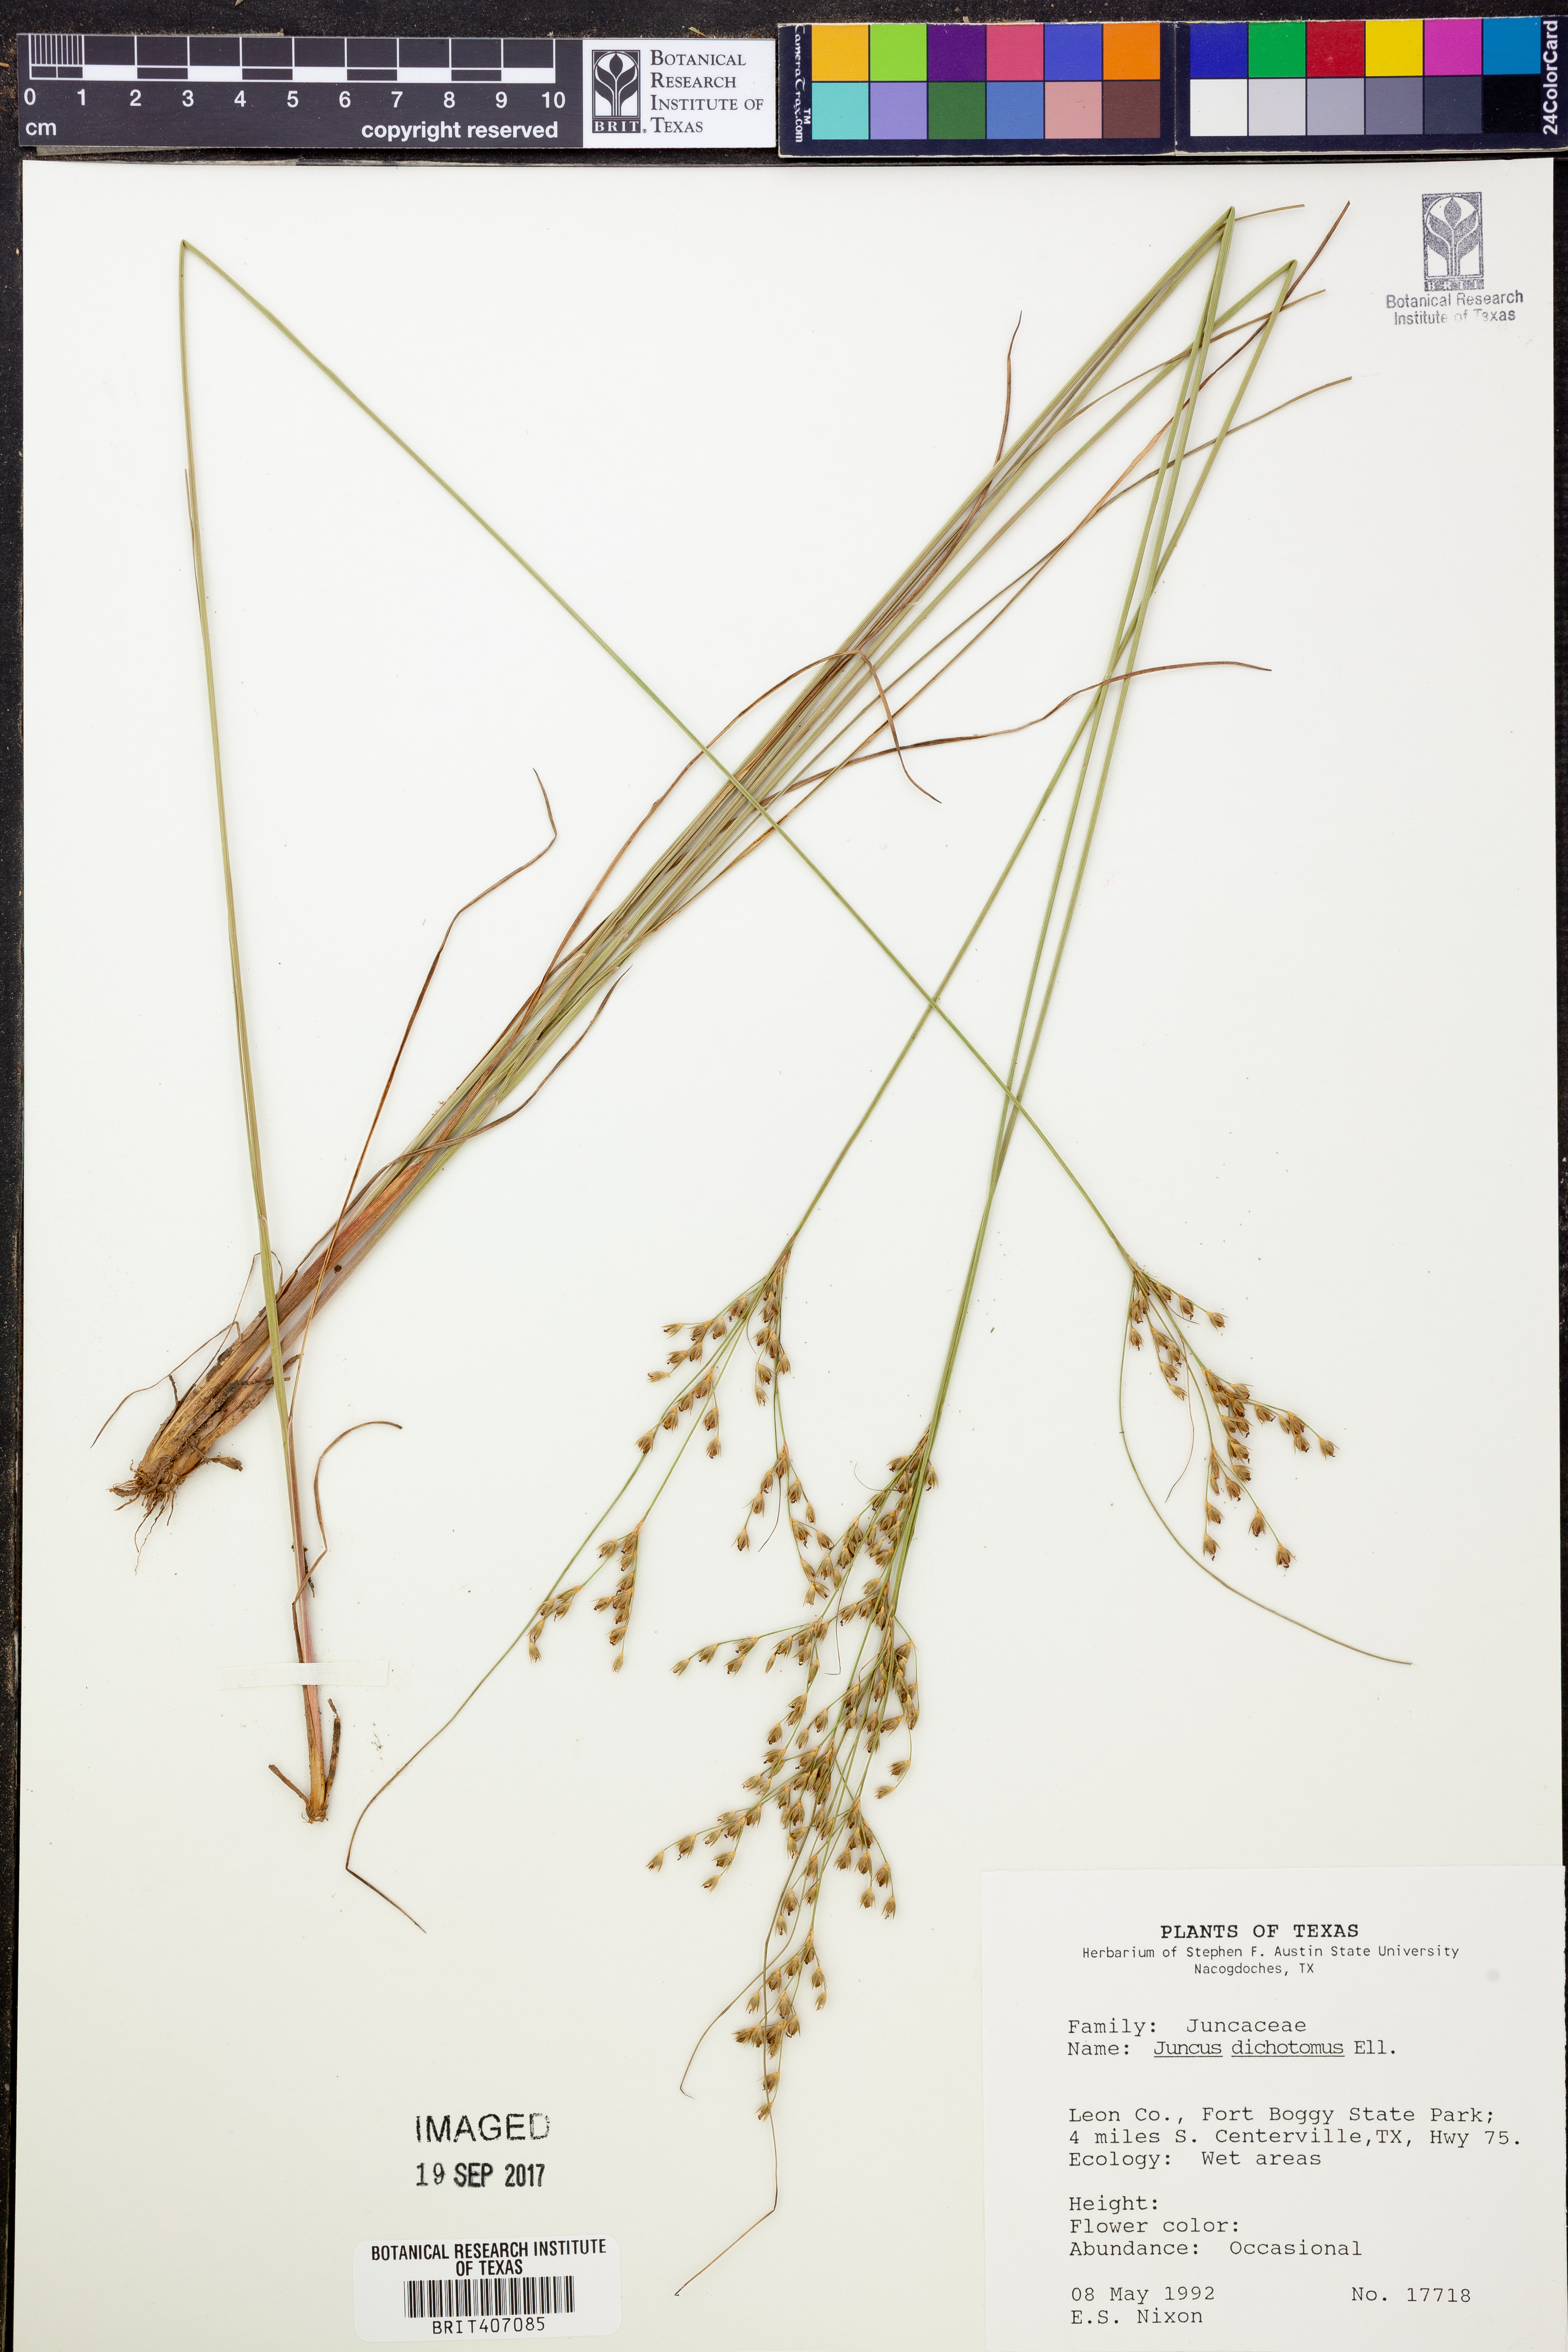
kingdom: Plantae
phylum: Tracheophyta
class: Liliopsida
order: Poales
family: Juncaceae
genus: Juncus
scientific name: Juncus dichotomus
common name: Forked rush
